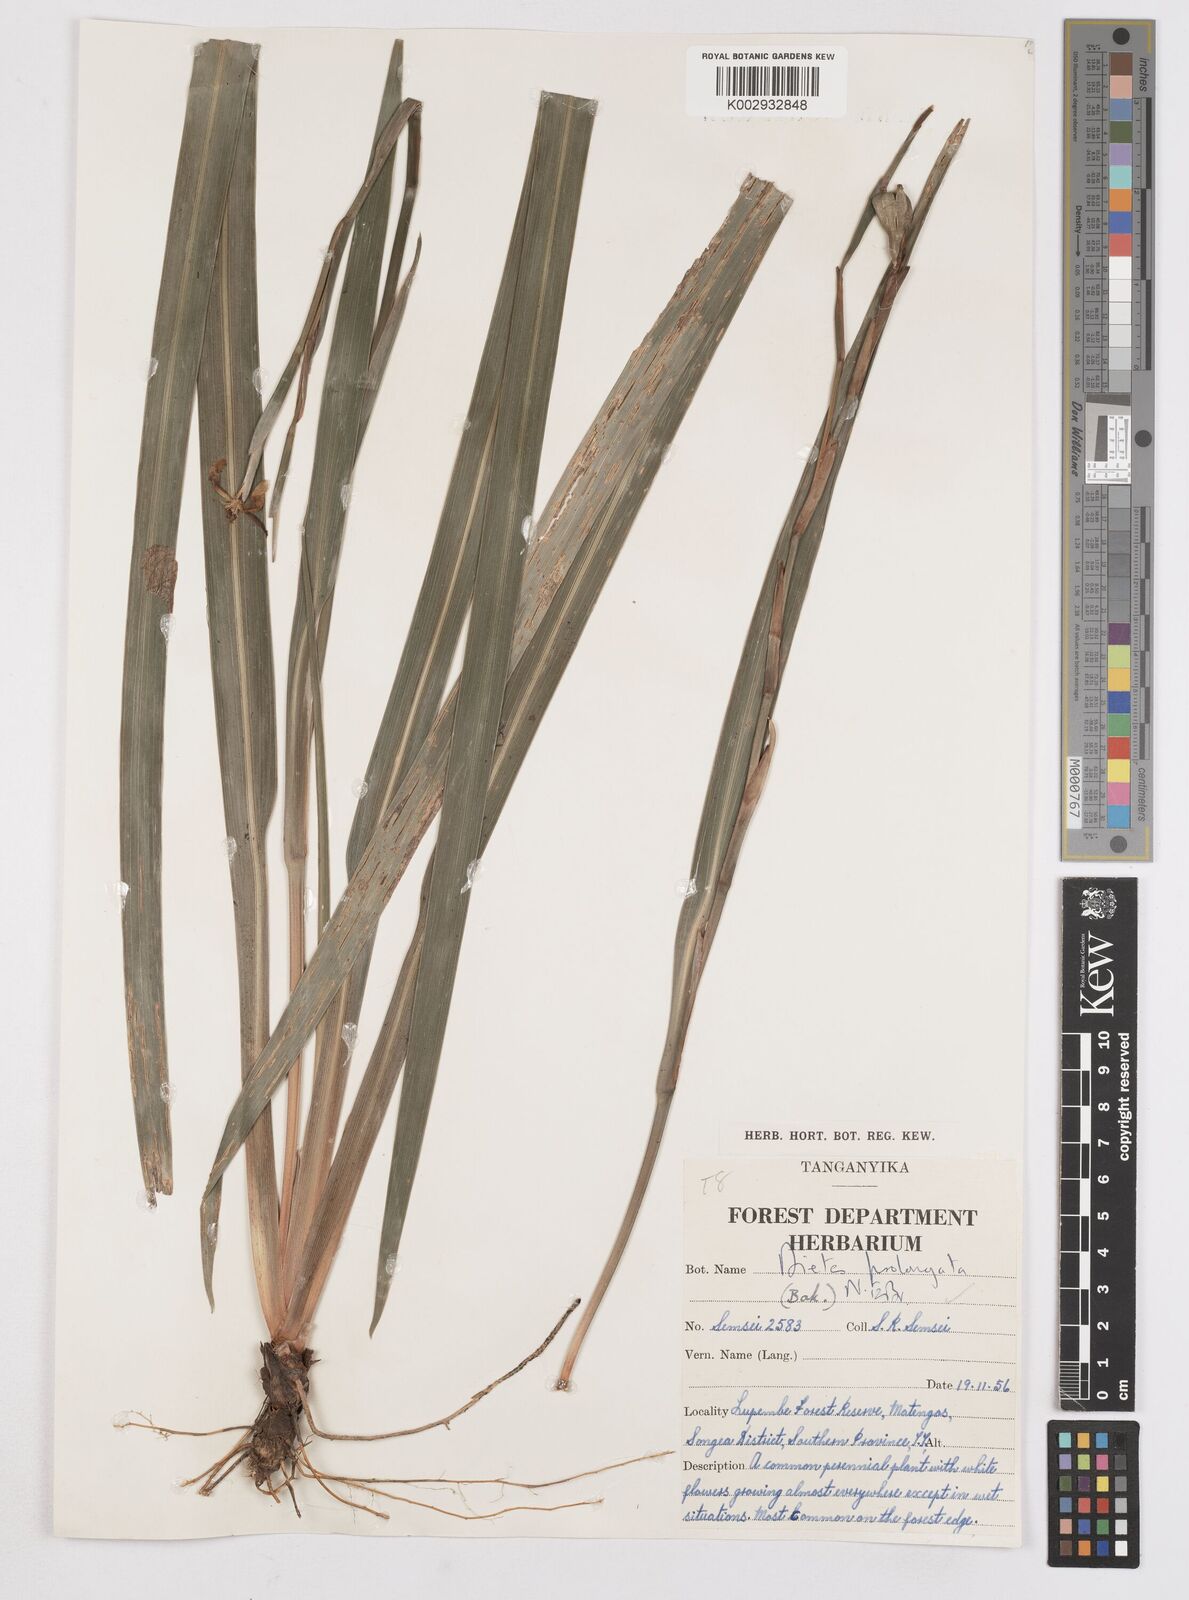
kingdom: Plantae
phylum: Tracheophyta
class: Liliopsida
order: Asparagales
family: Iridaceae
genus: Dietes
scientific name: Dietes iridioides
